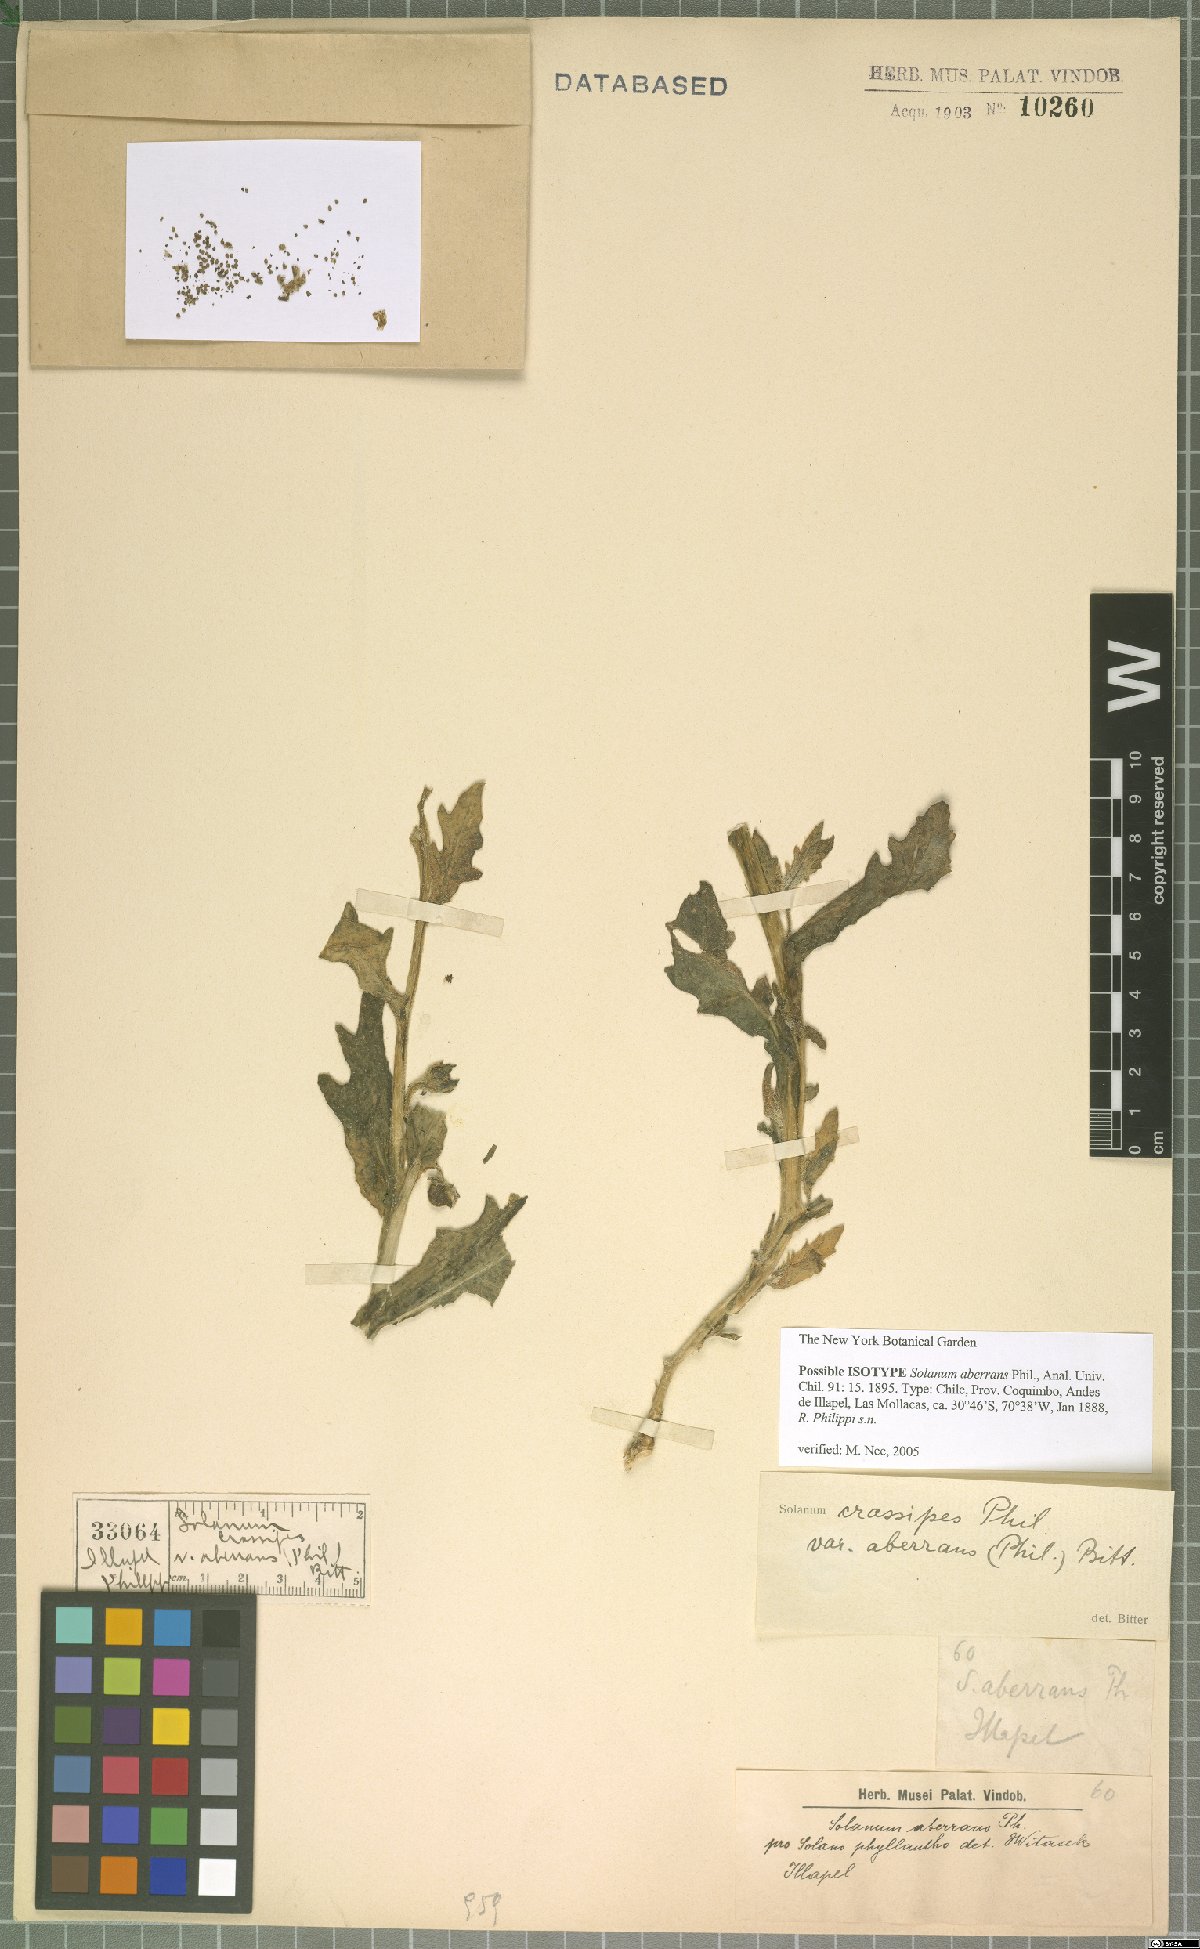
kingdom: Plantae
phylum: Tracheophyta
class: Magnoliopsida
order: Solanales
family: Solanaceae
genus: Solanum
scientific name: Solanum paposanum
